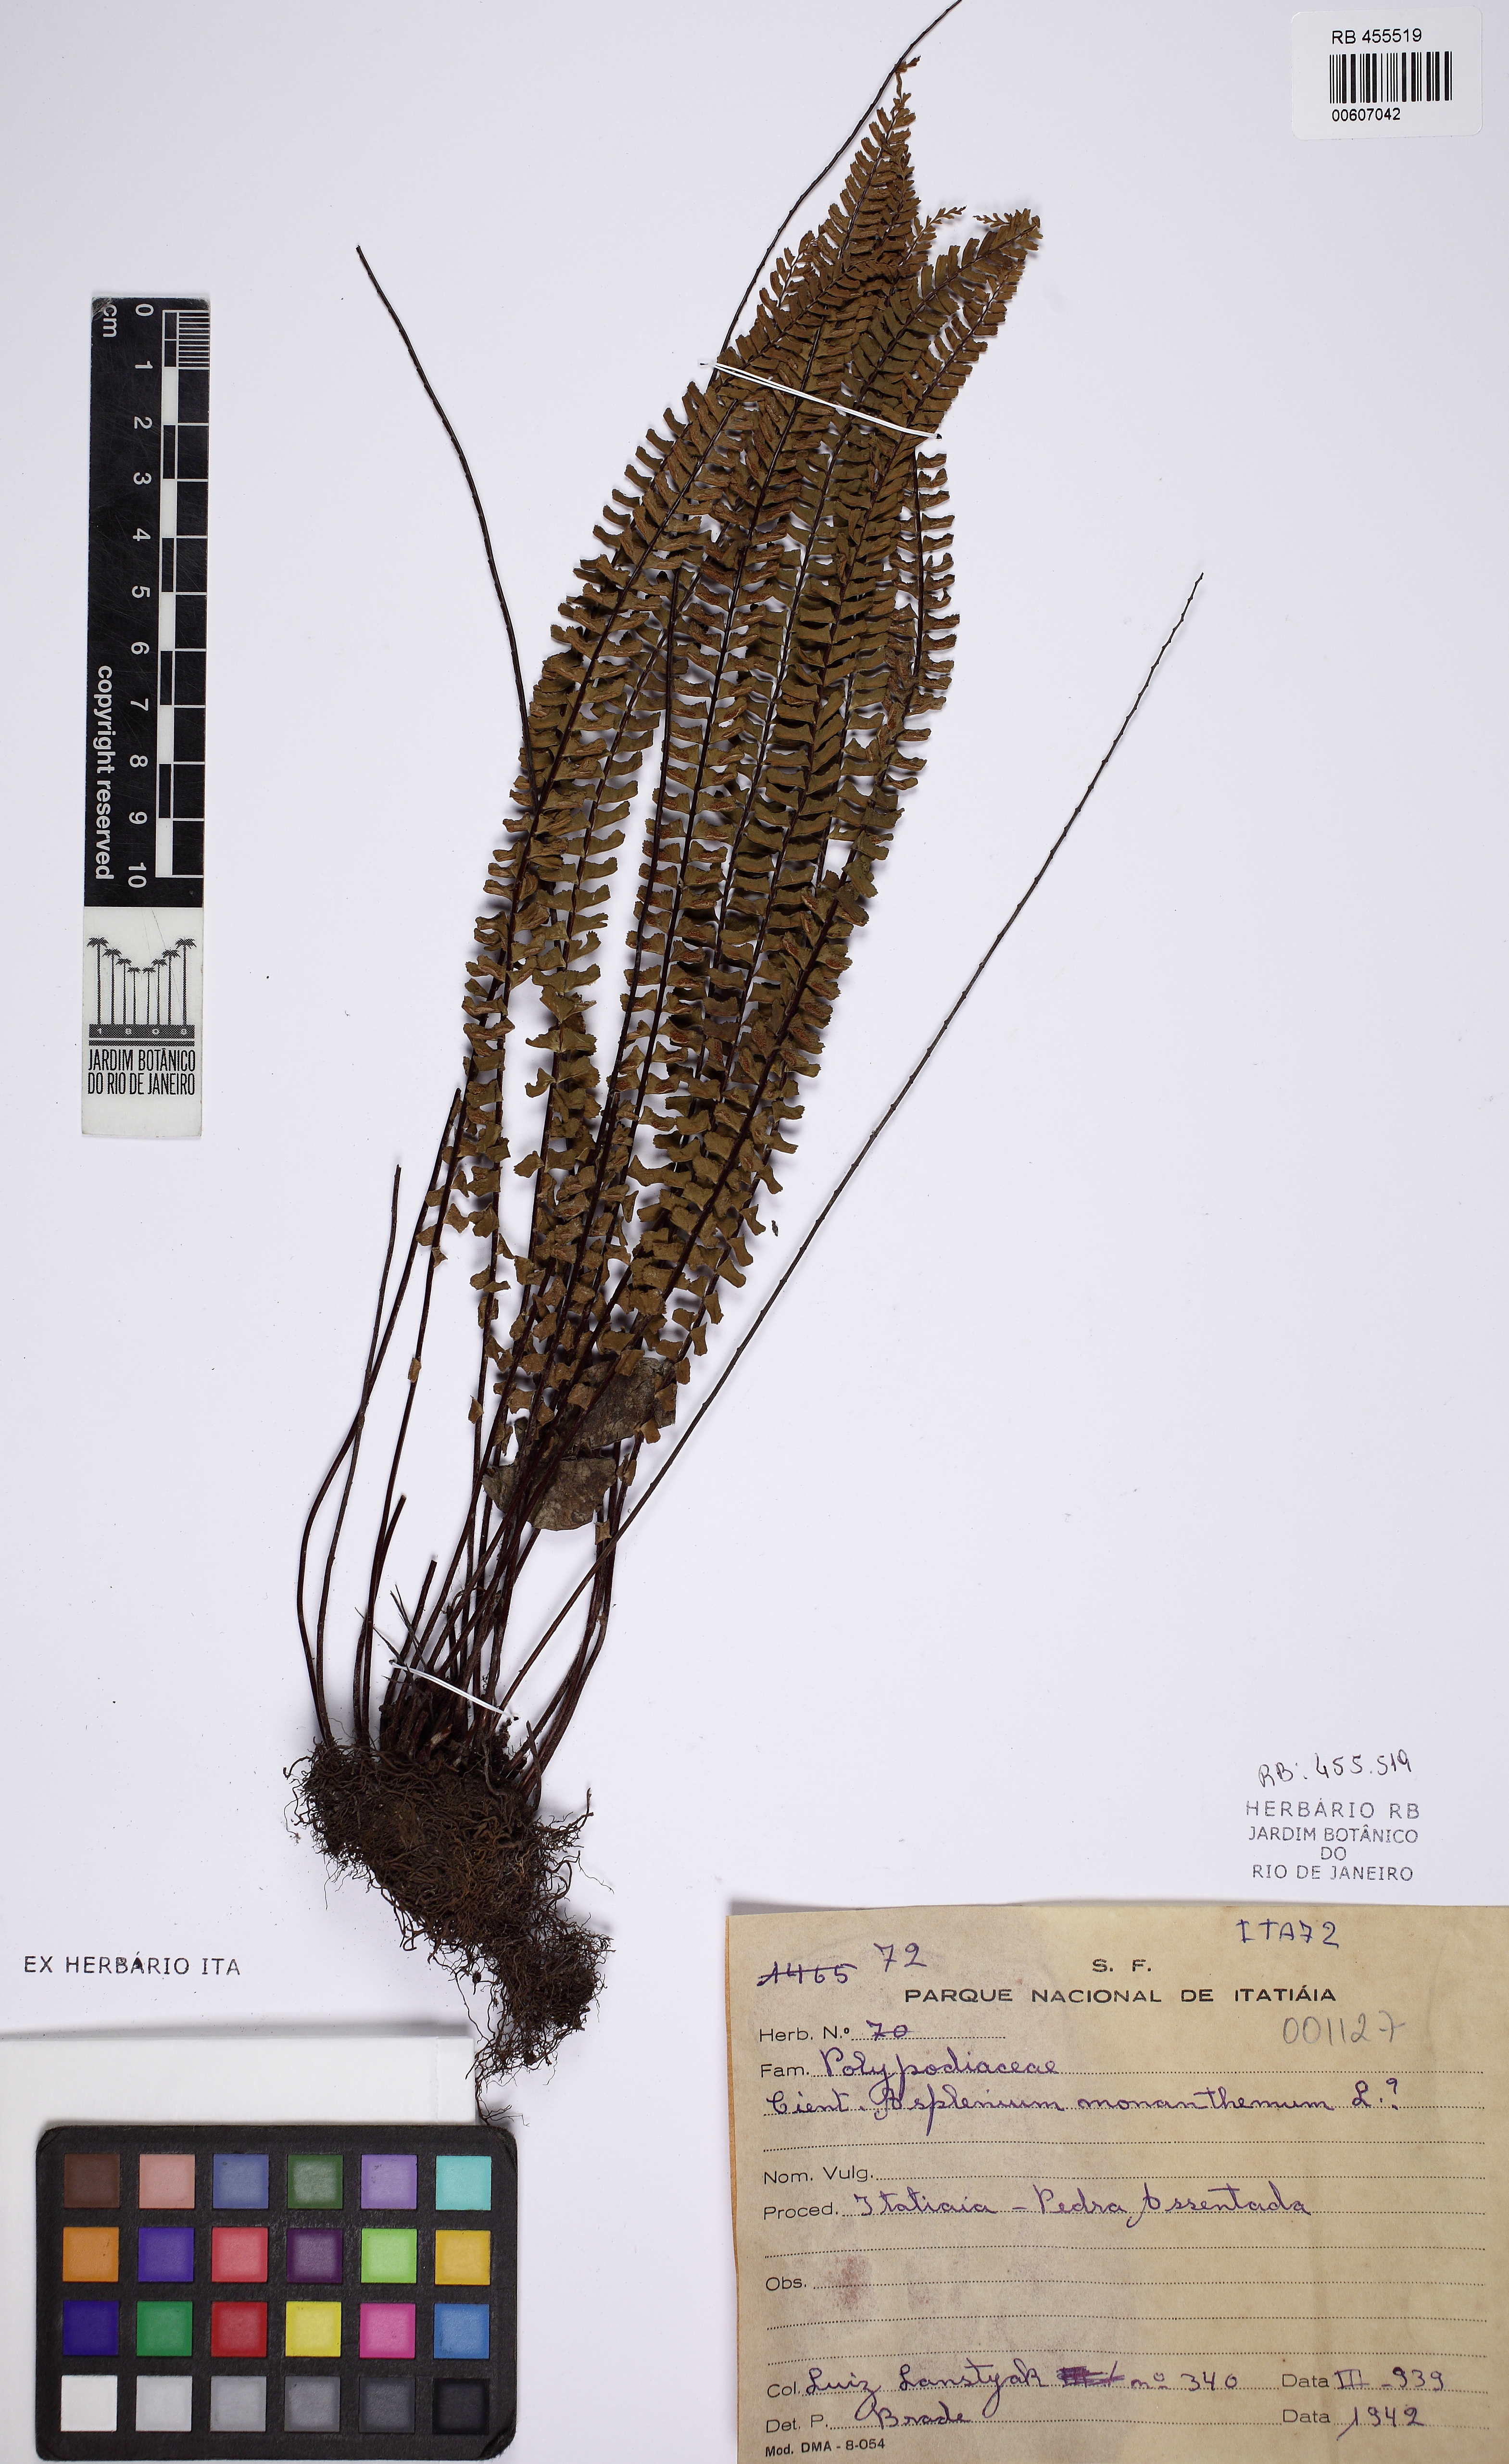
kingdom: Plantae
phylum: Tracheophyta
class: Polypodiopsida
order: Polypodiales
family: Aspleniaceae
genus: Asplenium
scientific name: Asplenium monanthes
